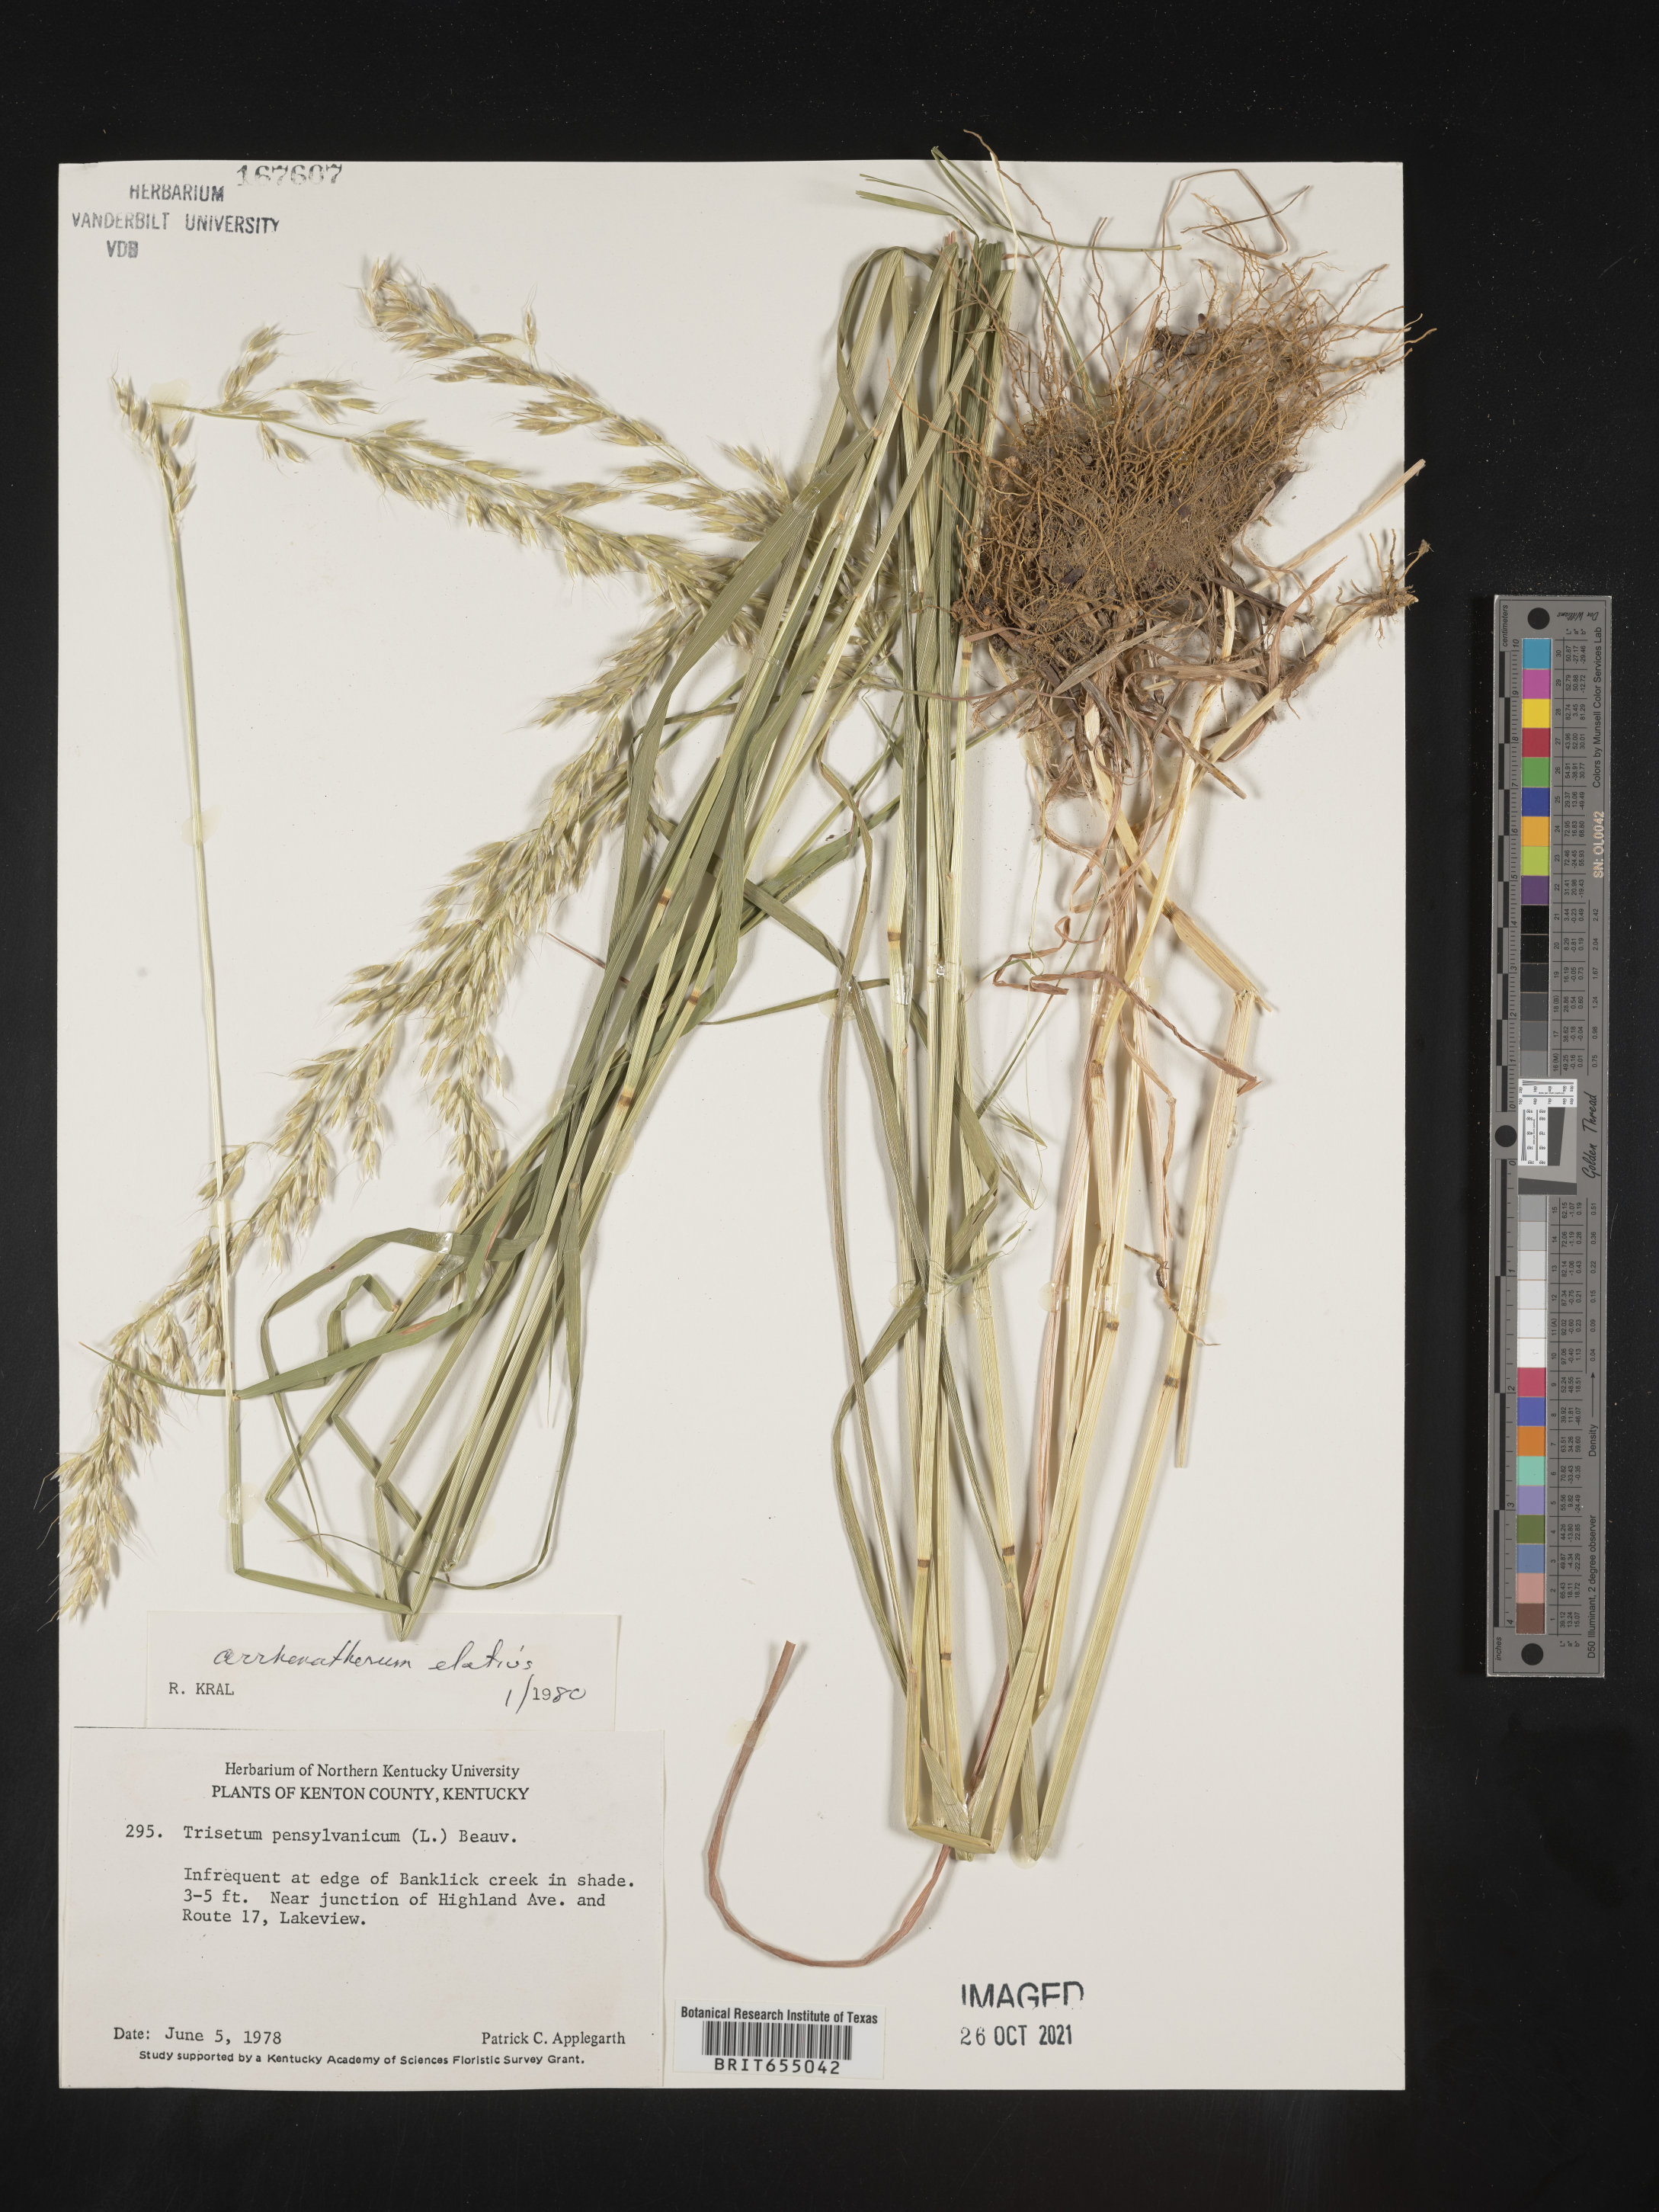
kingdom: Plantae
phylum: Tracheophyta
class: Liliopsida
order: Poales
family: Poaceae
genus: Arrhenatherum
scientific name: Arrhenatherum
